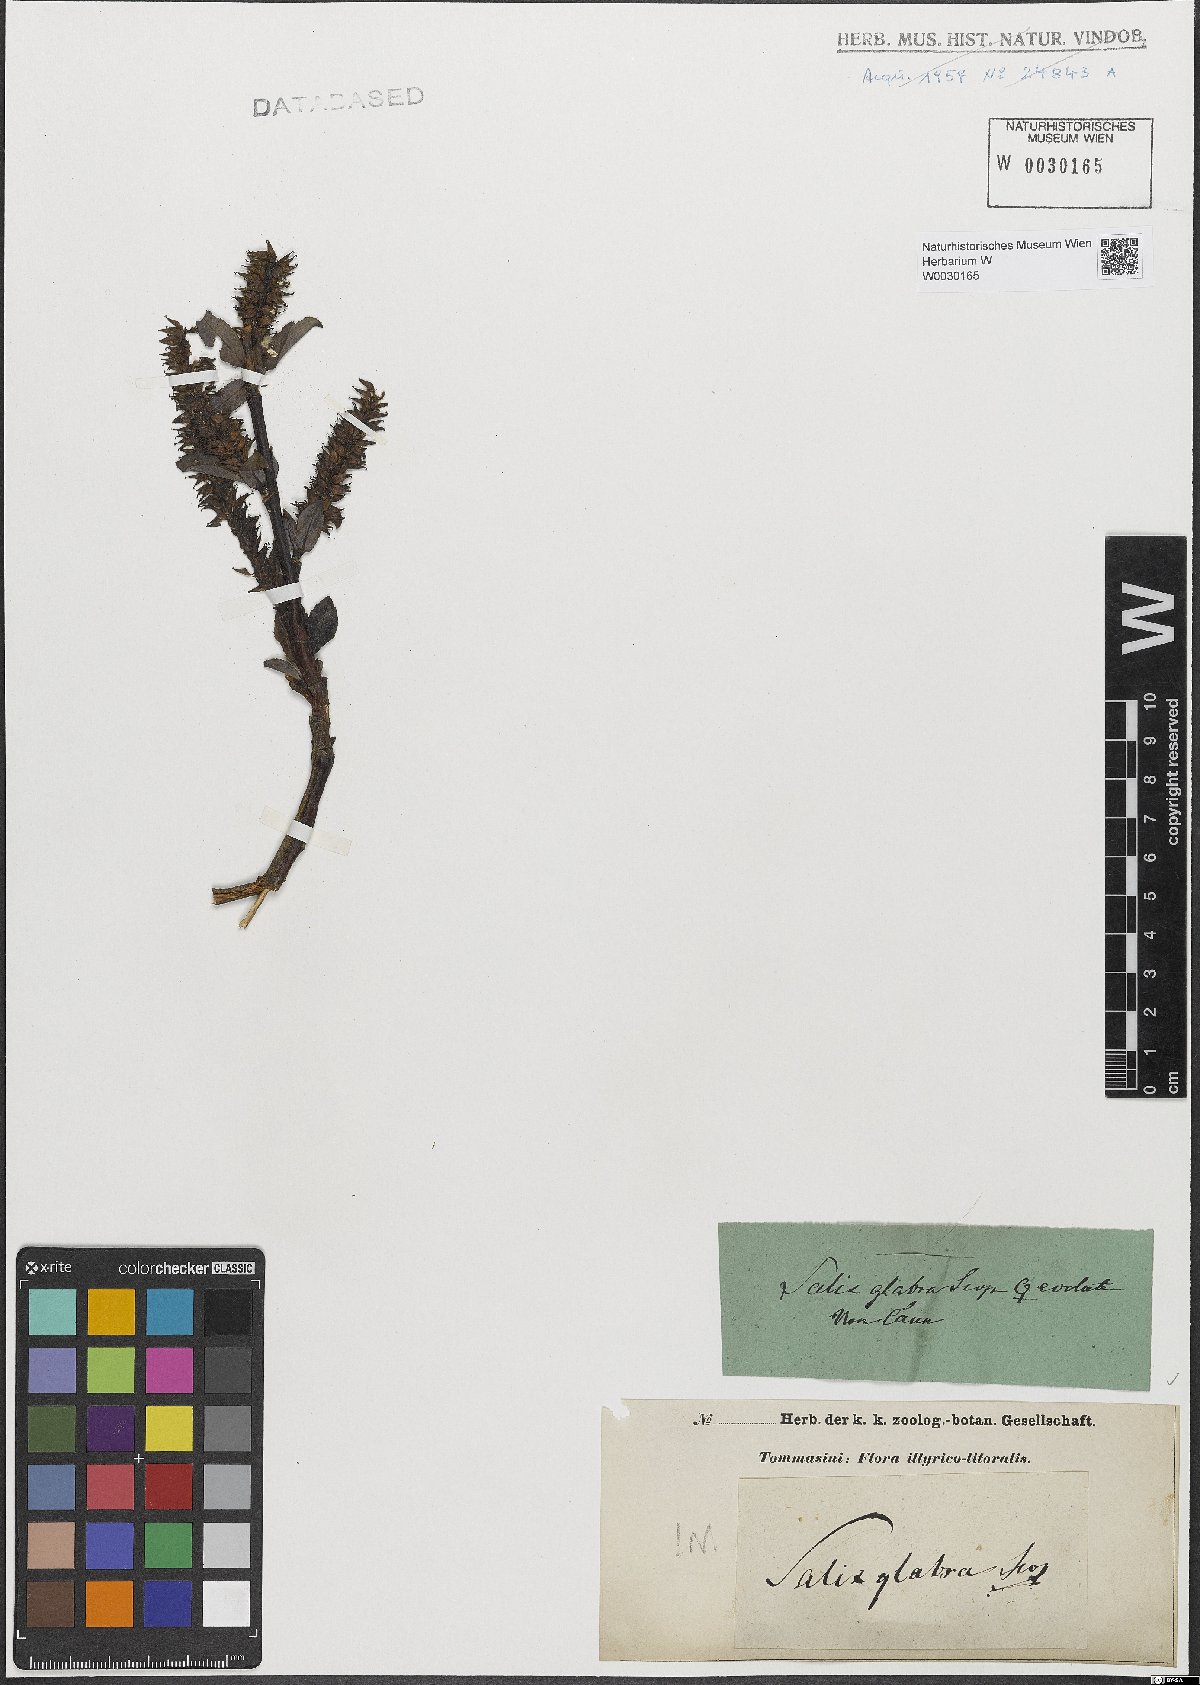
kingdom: Plantae
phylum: Tracheophyta
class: Magnoliopsida
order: Malpighiales
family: Salicaceae
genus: Salix
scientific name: Salix glabra
